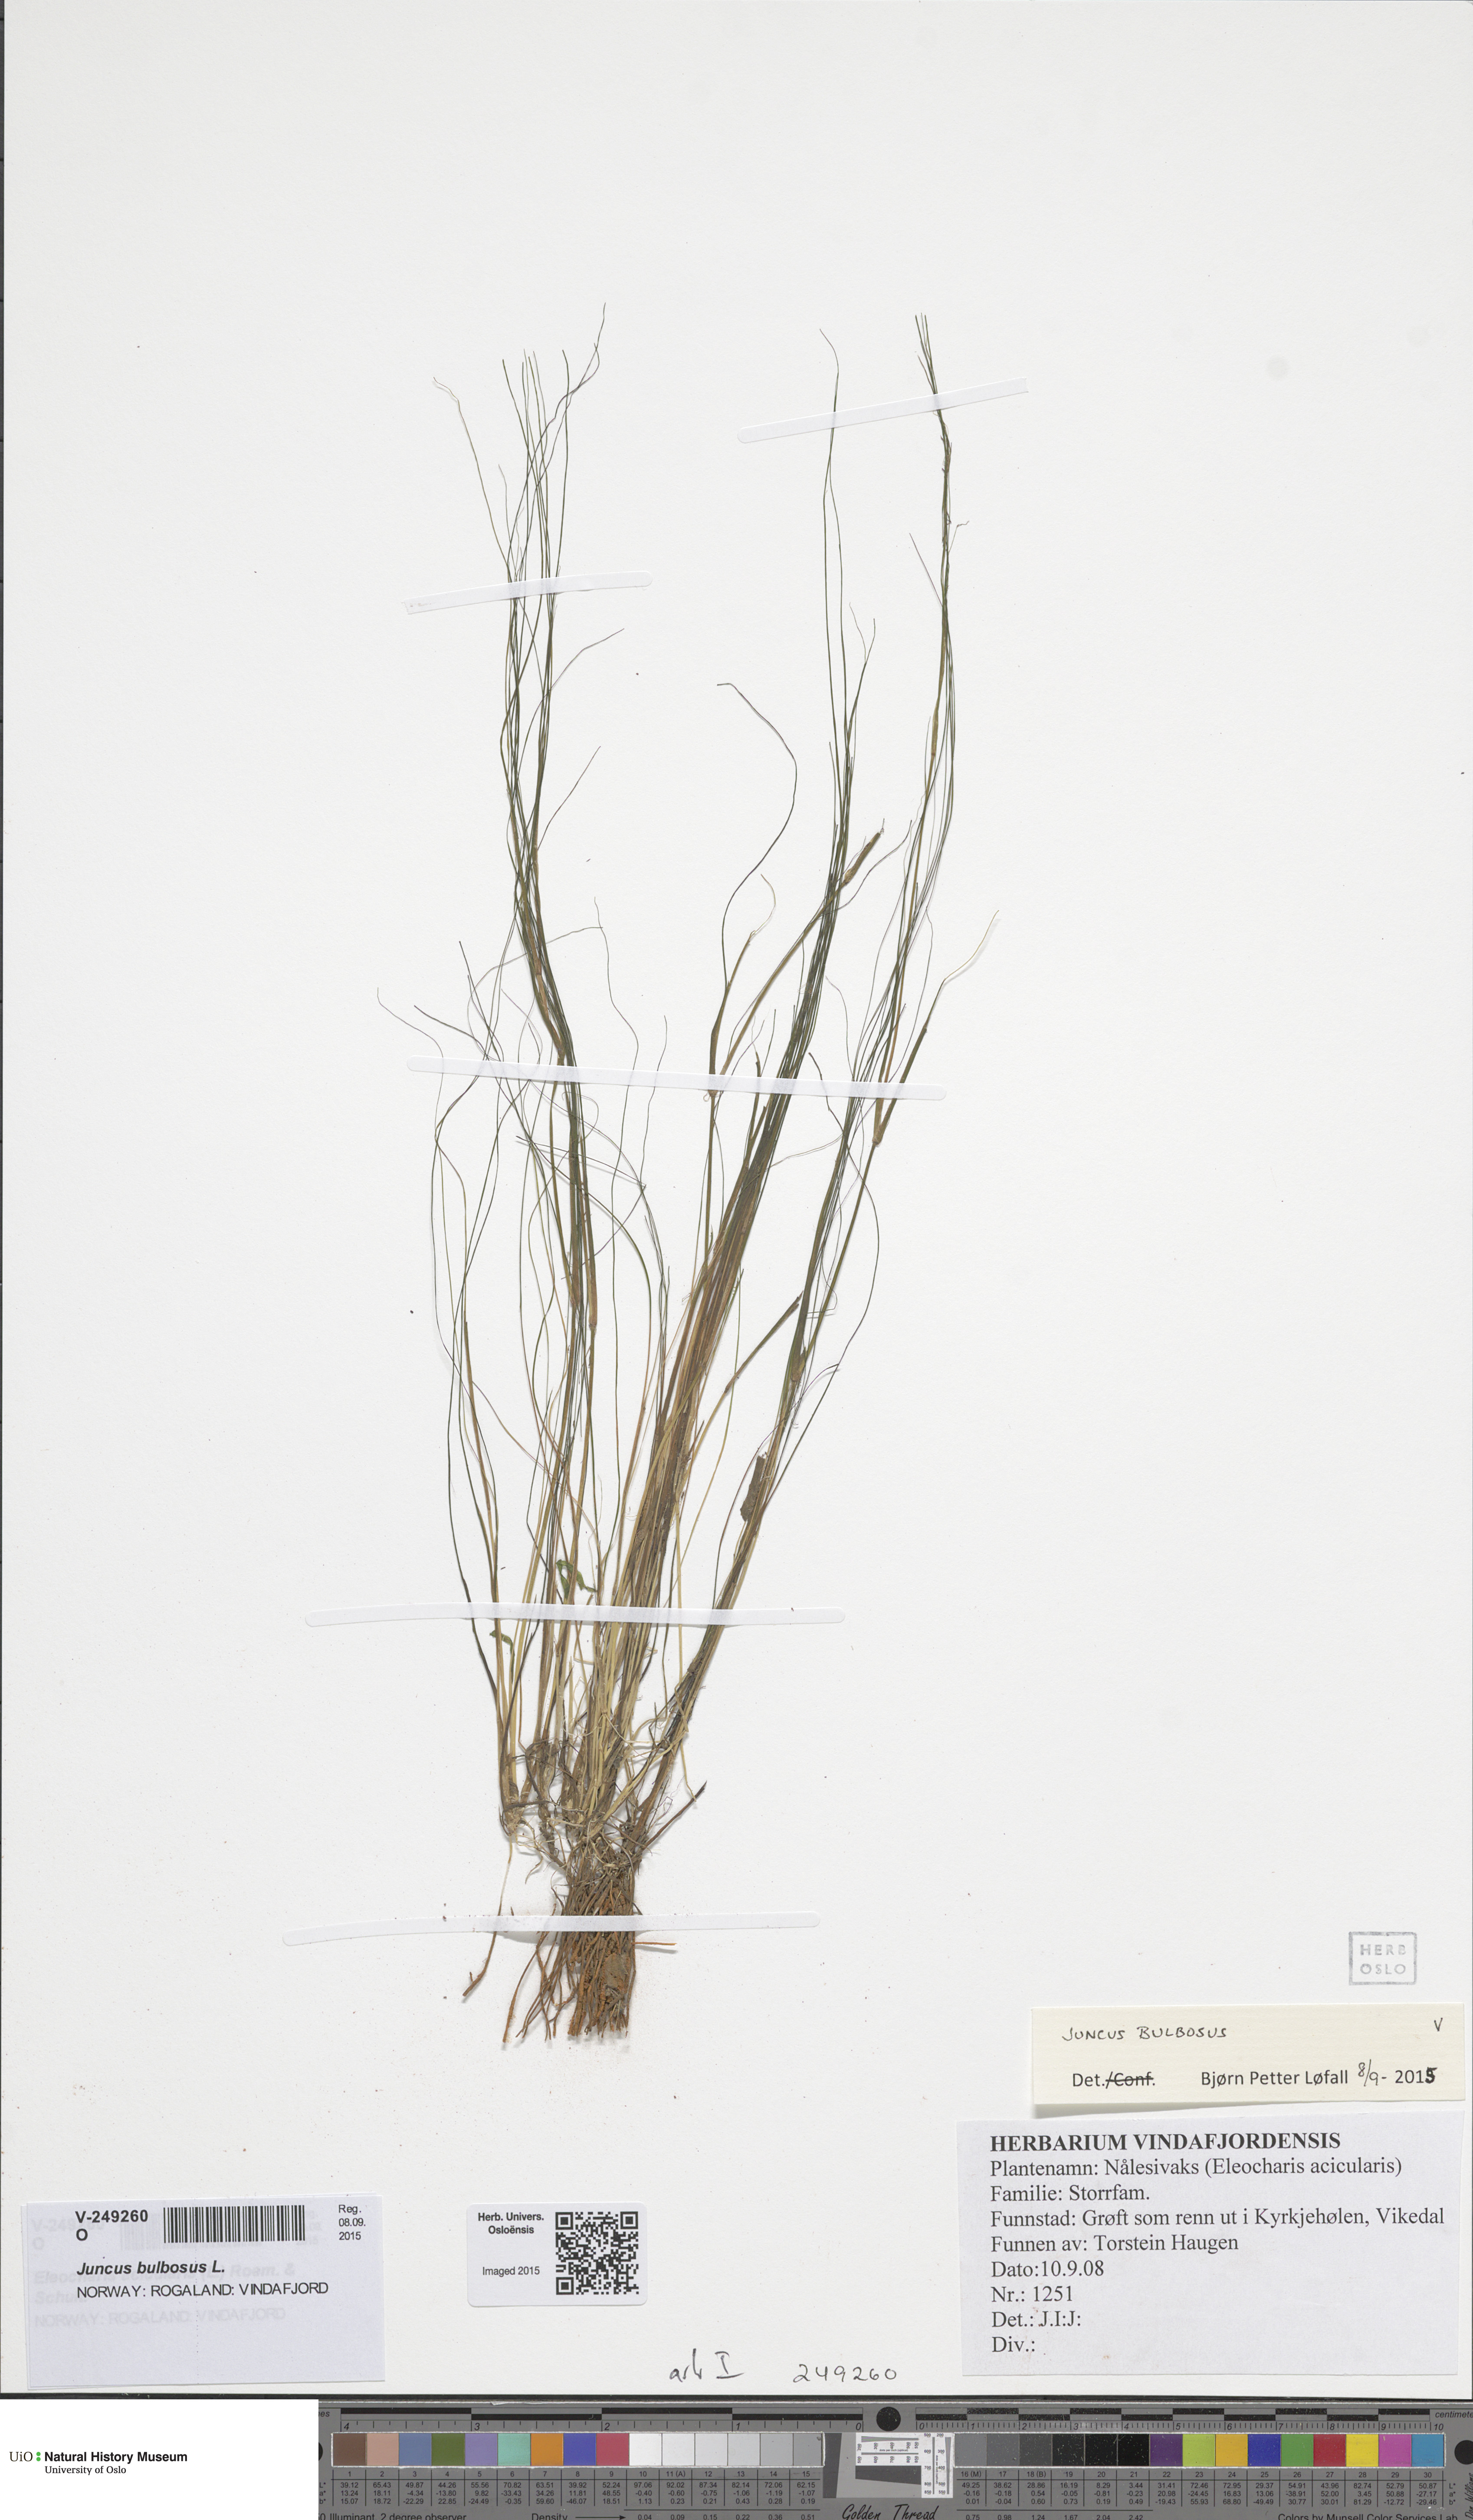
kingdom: Plantae
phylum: Tracheophyta
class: Liliopsida
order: Poales
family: Juncaceae
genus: Juncus
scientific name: Juncus bulbosus
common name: Bulbous rush
